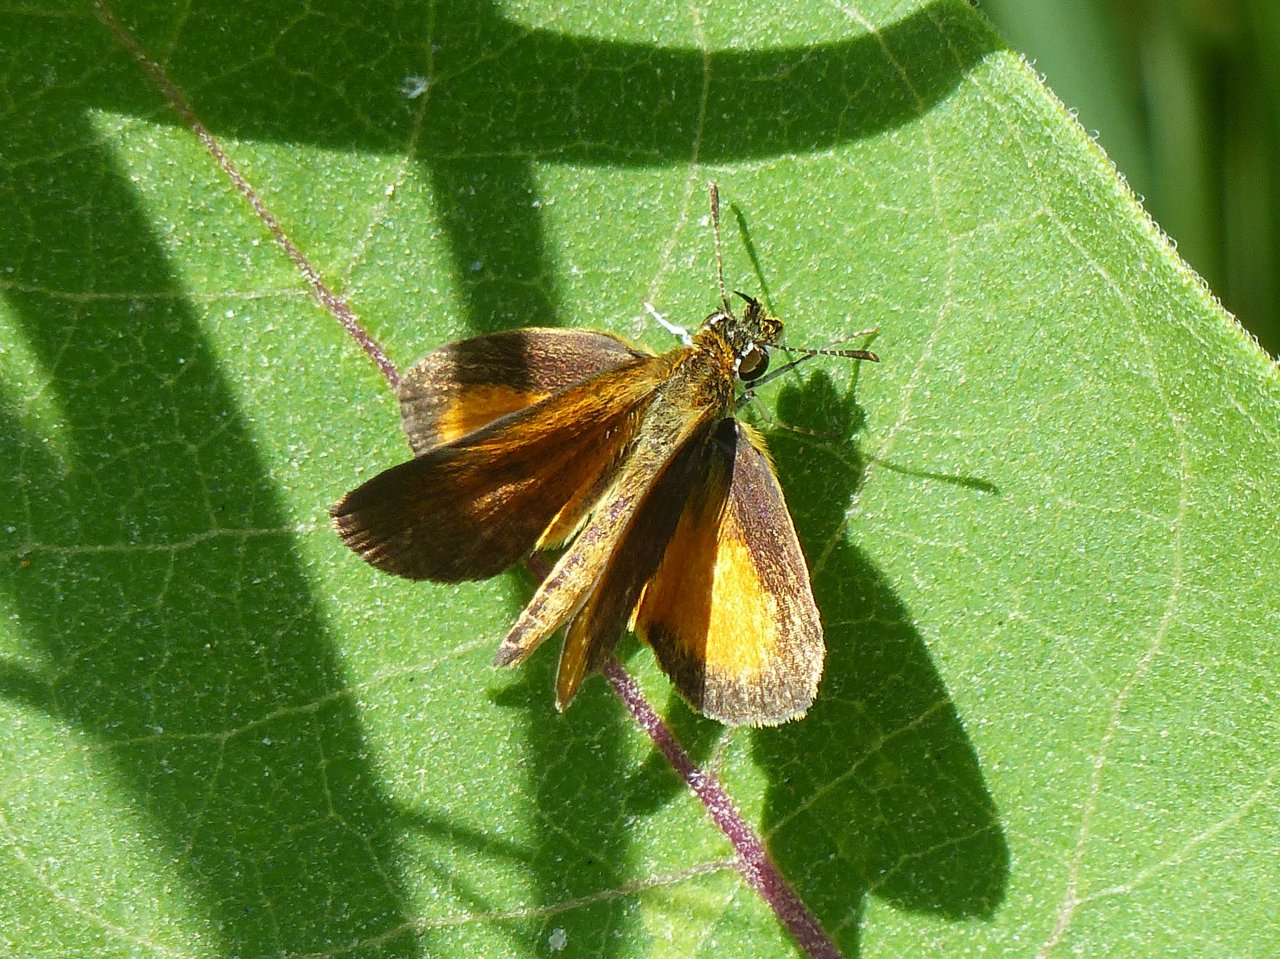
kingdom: Animalia
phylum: Arthropoda
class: Insecta
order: Lepidoptera
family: Hesperiidae
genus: Ancyloxypha
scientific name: Ancyloxypha numitor
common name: Least Skipper
